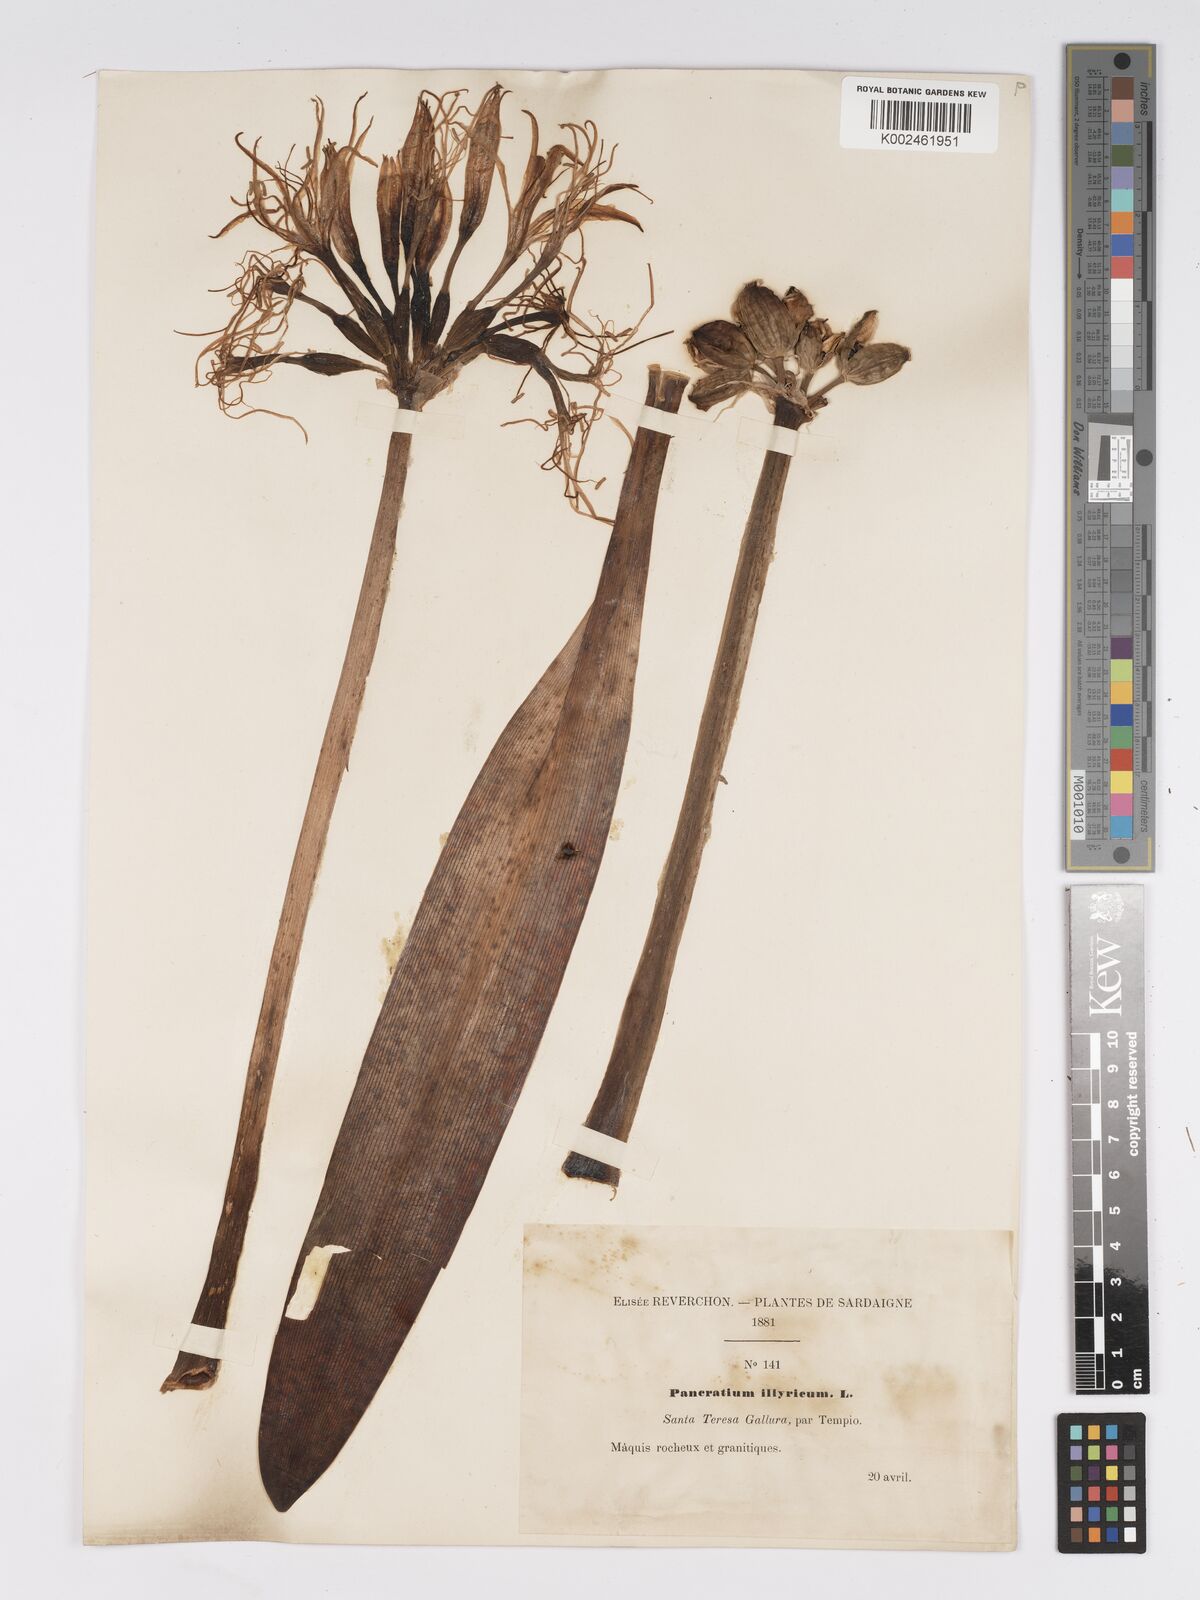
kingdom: Plantae
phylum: Tracheophyta
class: Liliopsida
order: Asparagales
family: Amaryllidaceae
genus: Pancratium
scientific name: Pancratium illyricum
